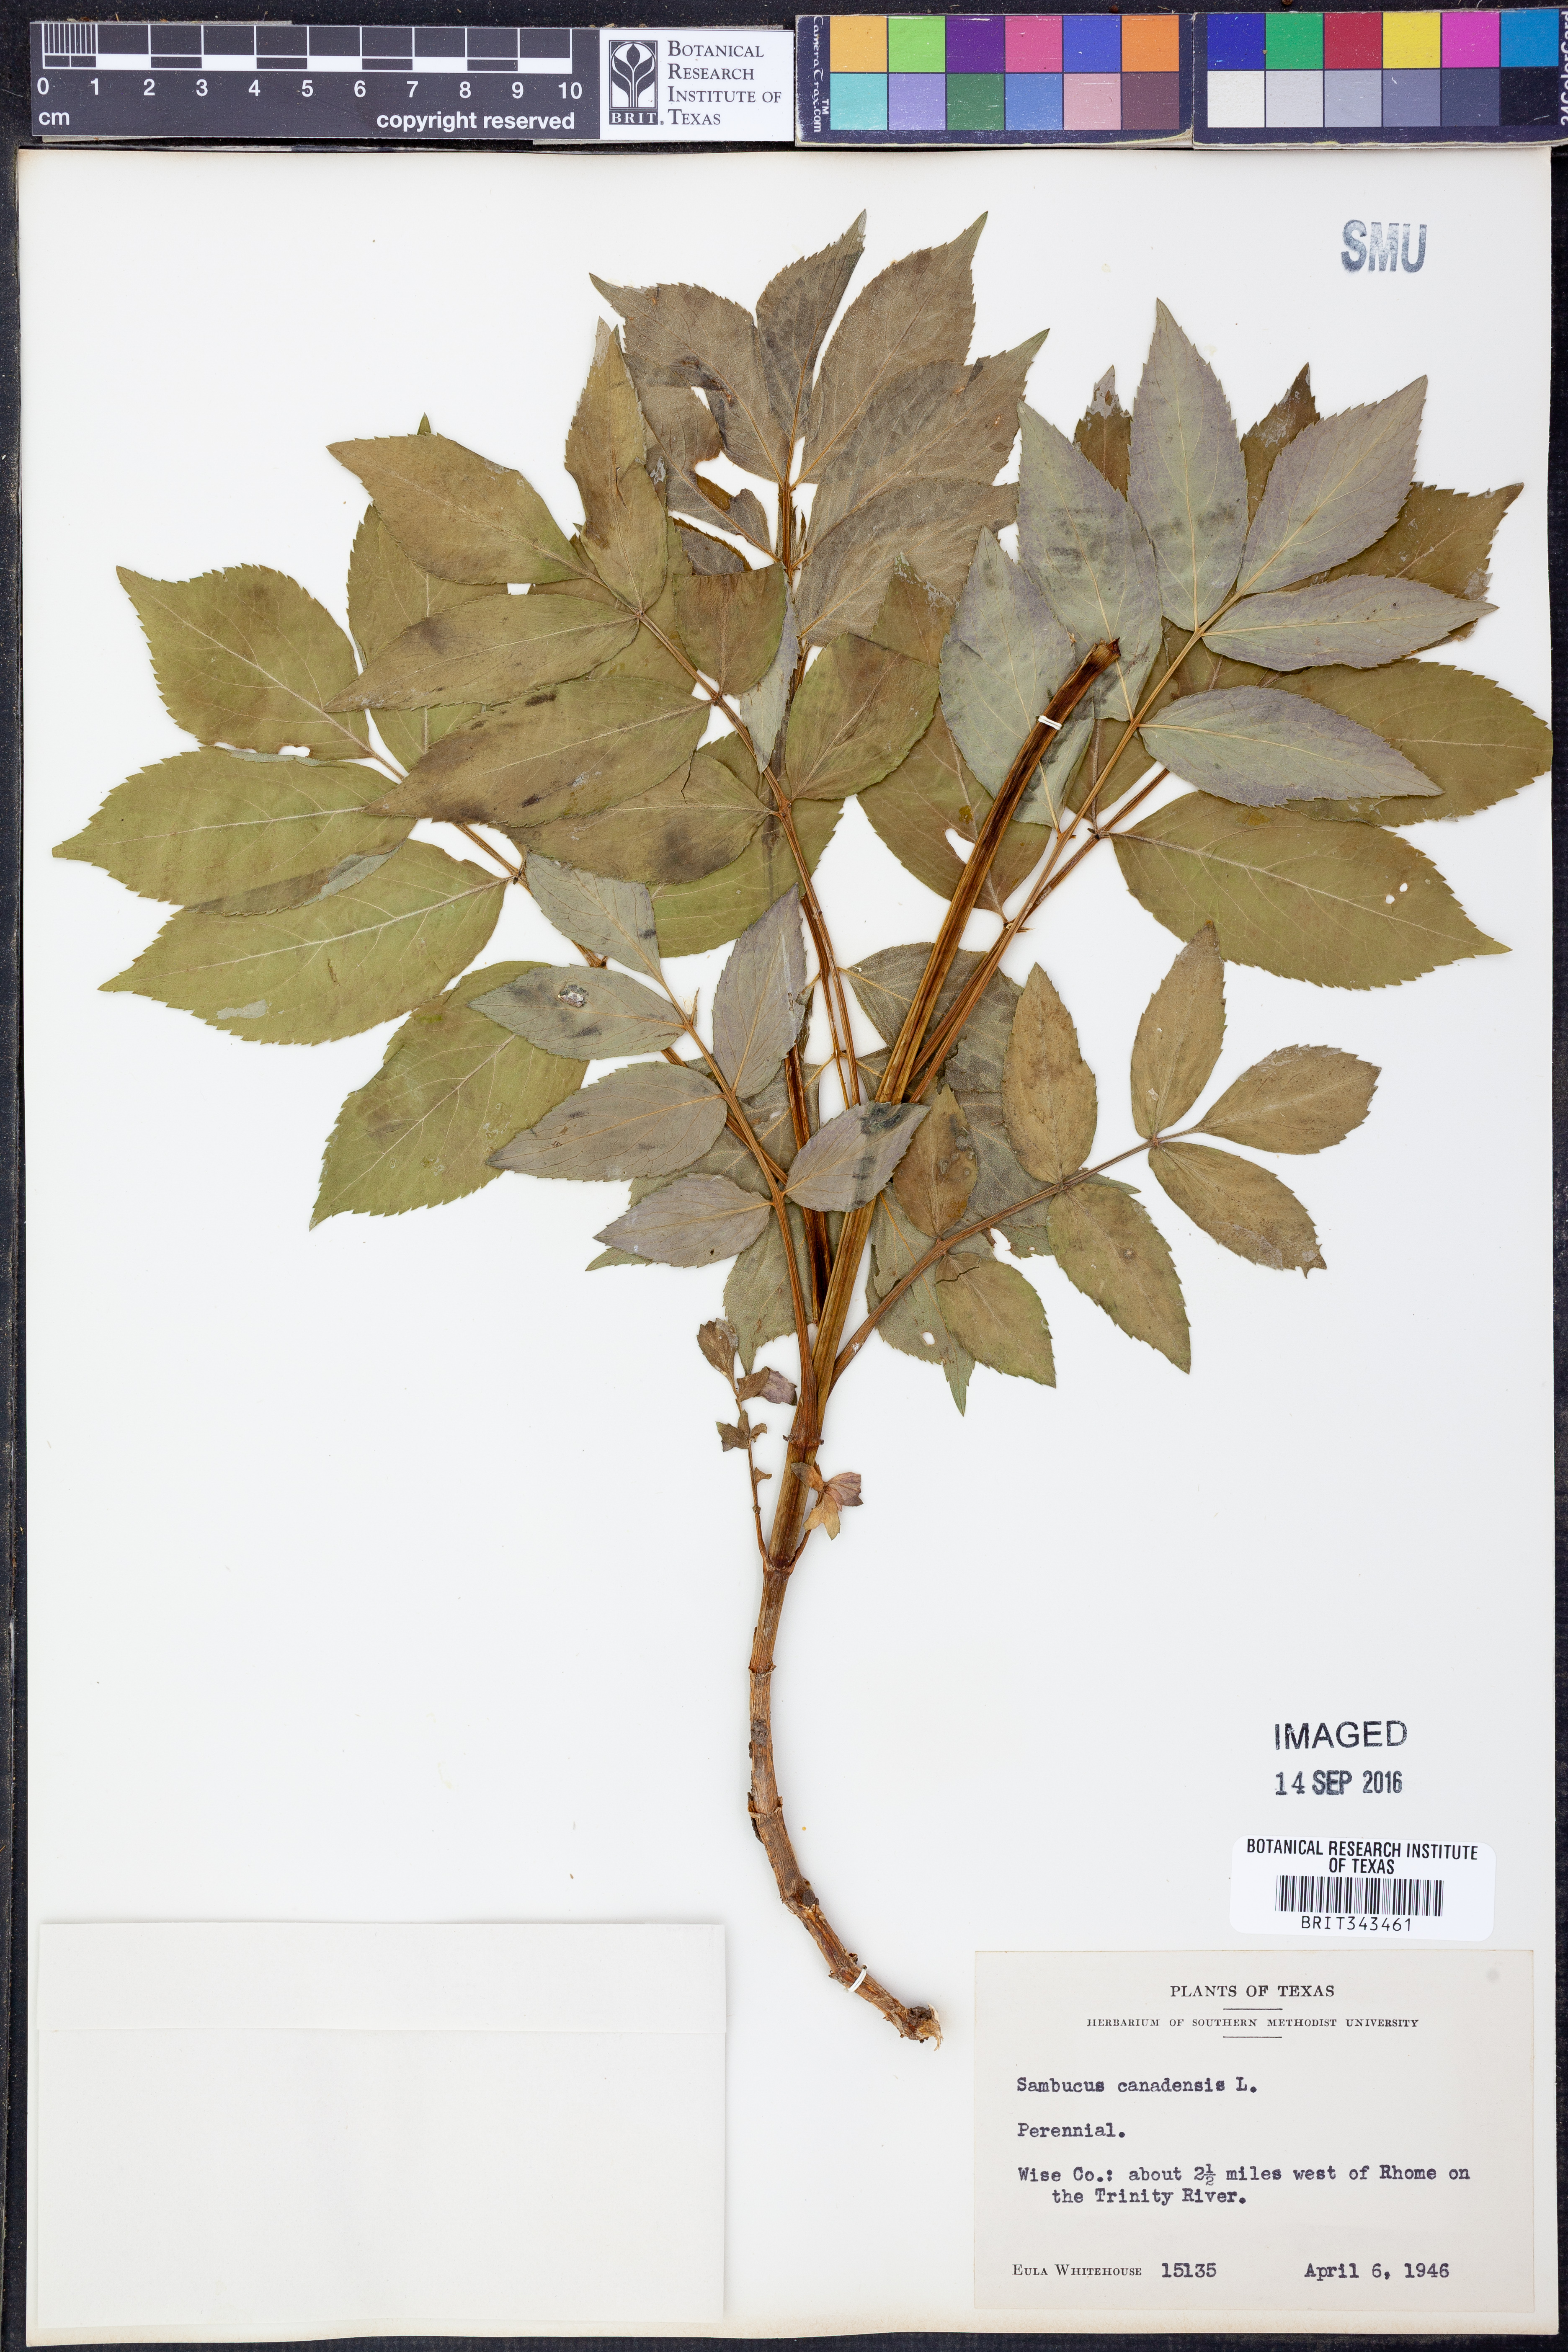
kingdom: Plantae
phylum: Tracheophyta
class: Magnoliopsida
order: Dipsacales
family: Viburnaceae
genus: Sambucus
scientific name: Sambucus canadensis
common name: American elder
